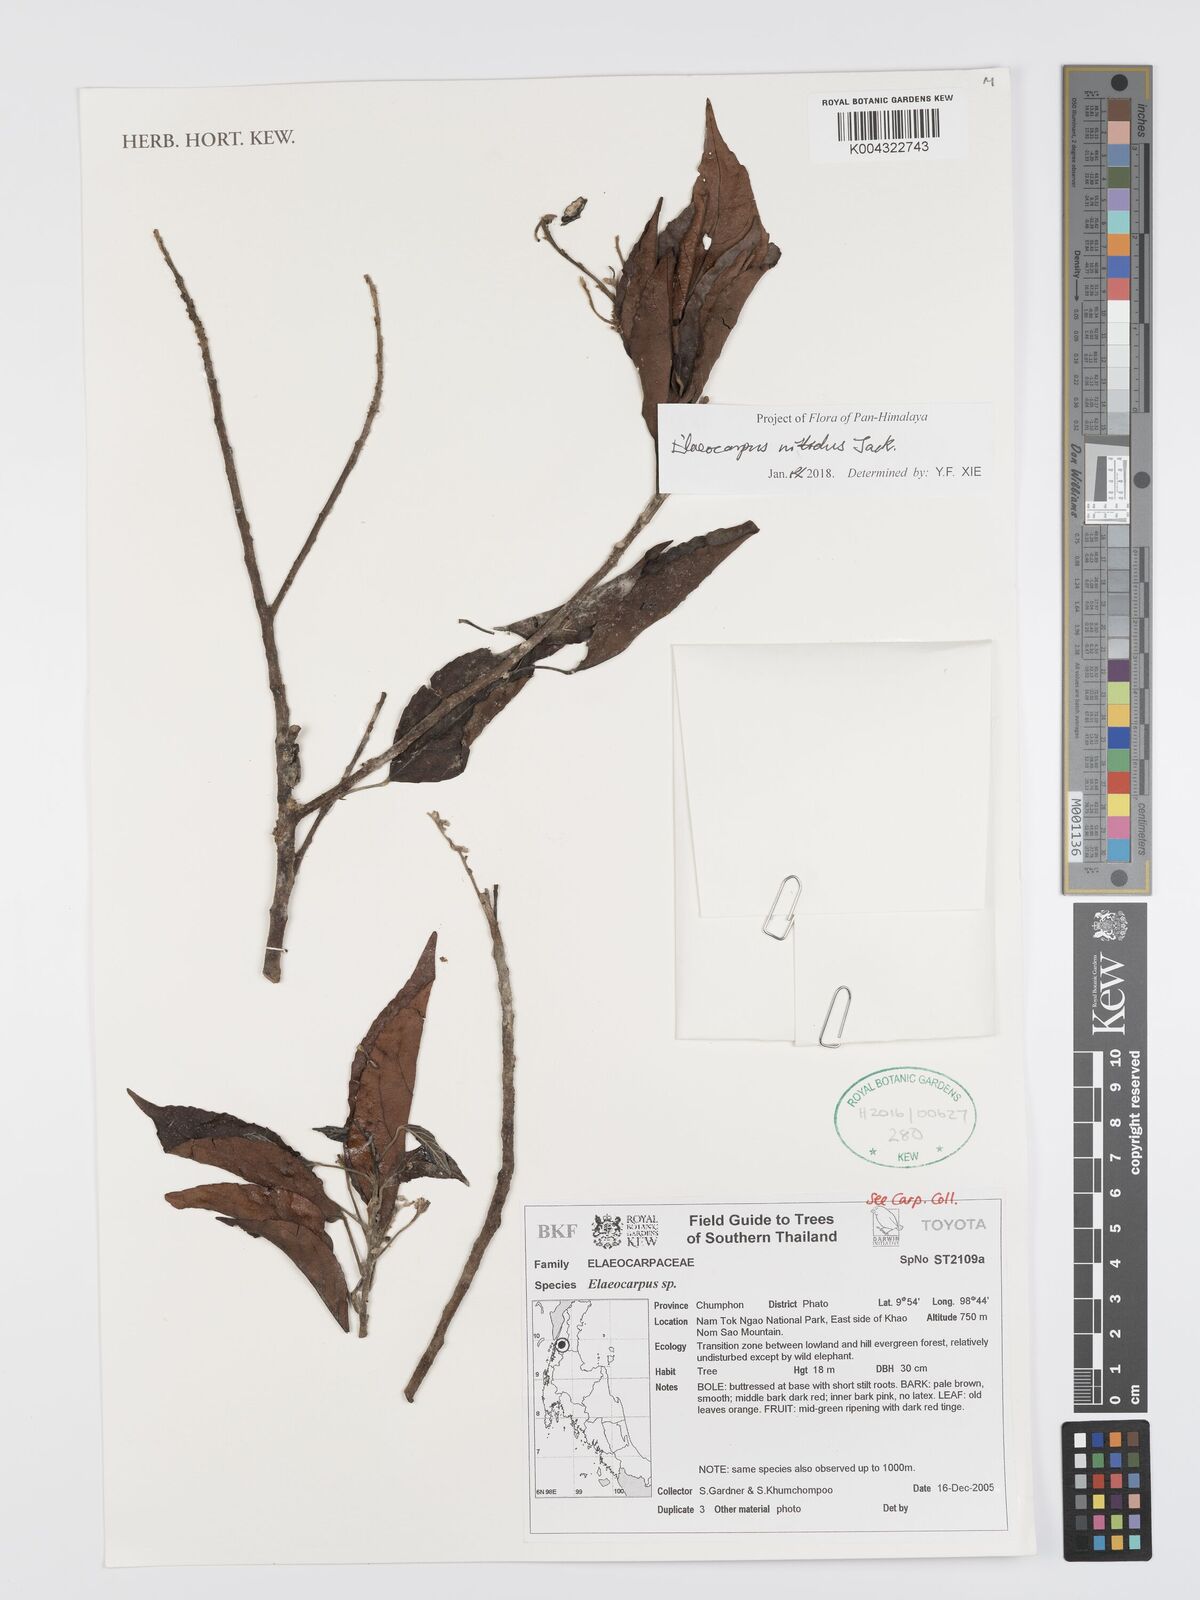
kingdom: Plantae
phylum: Tracheophyta
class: Magnoliopsida
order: Oxalidales
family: Elaeocarpaceae
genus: Elaeocarpus
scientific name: Elaeocarpus nitidus
